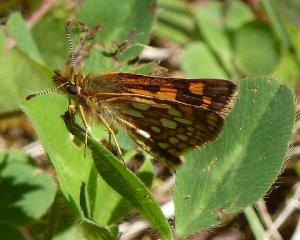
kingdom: Animalia
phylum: Arthropoda
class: Insecta
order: Lepidoptera
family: Hesperiidae
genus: Carterocephalus
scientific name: Carterocephalus palaemon
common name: Chequered Skipper
